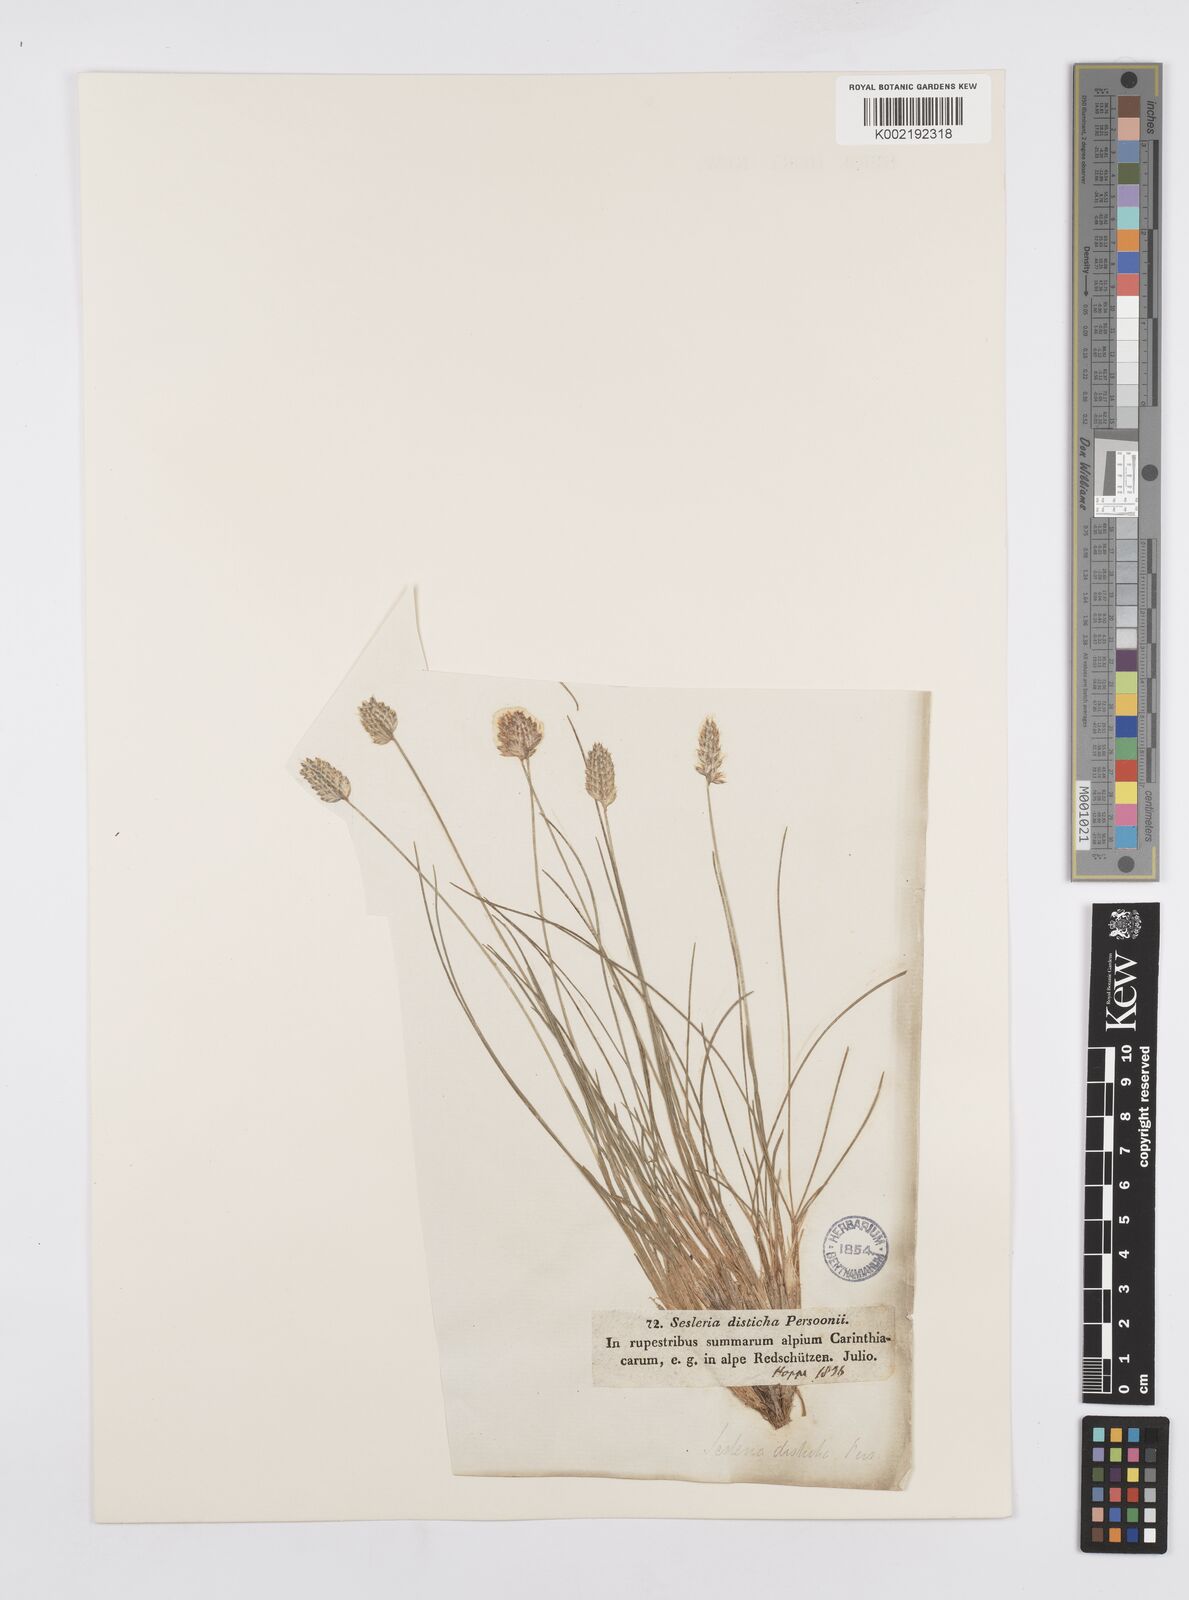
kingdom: Plantae
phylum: Tracheophyta
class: Liliopsida
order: Poales
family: Poaceae
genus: Oreochloa
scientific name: Oreochloa disticha
